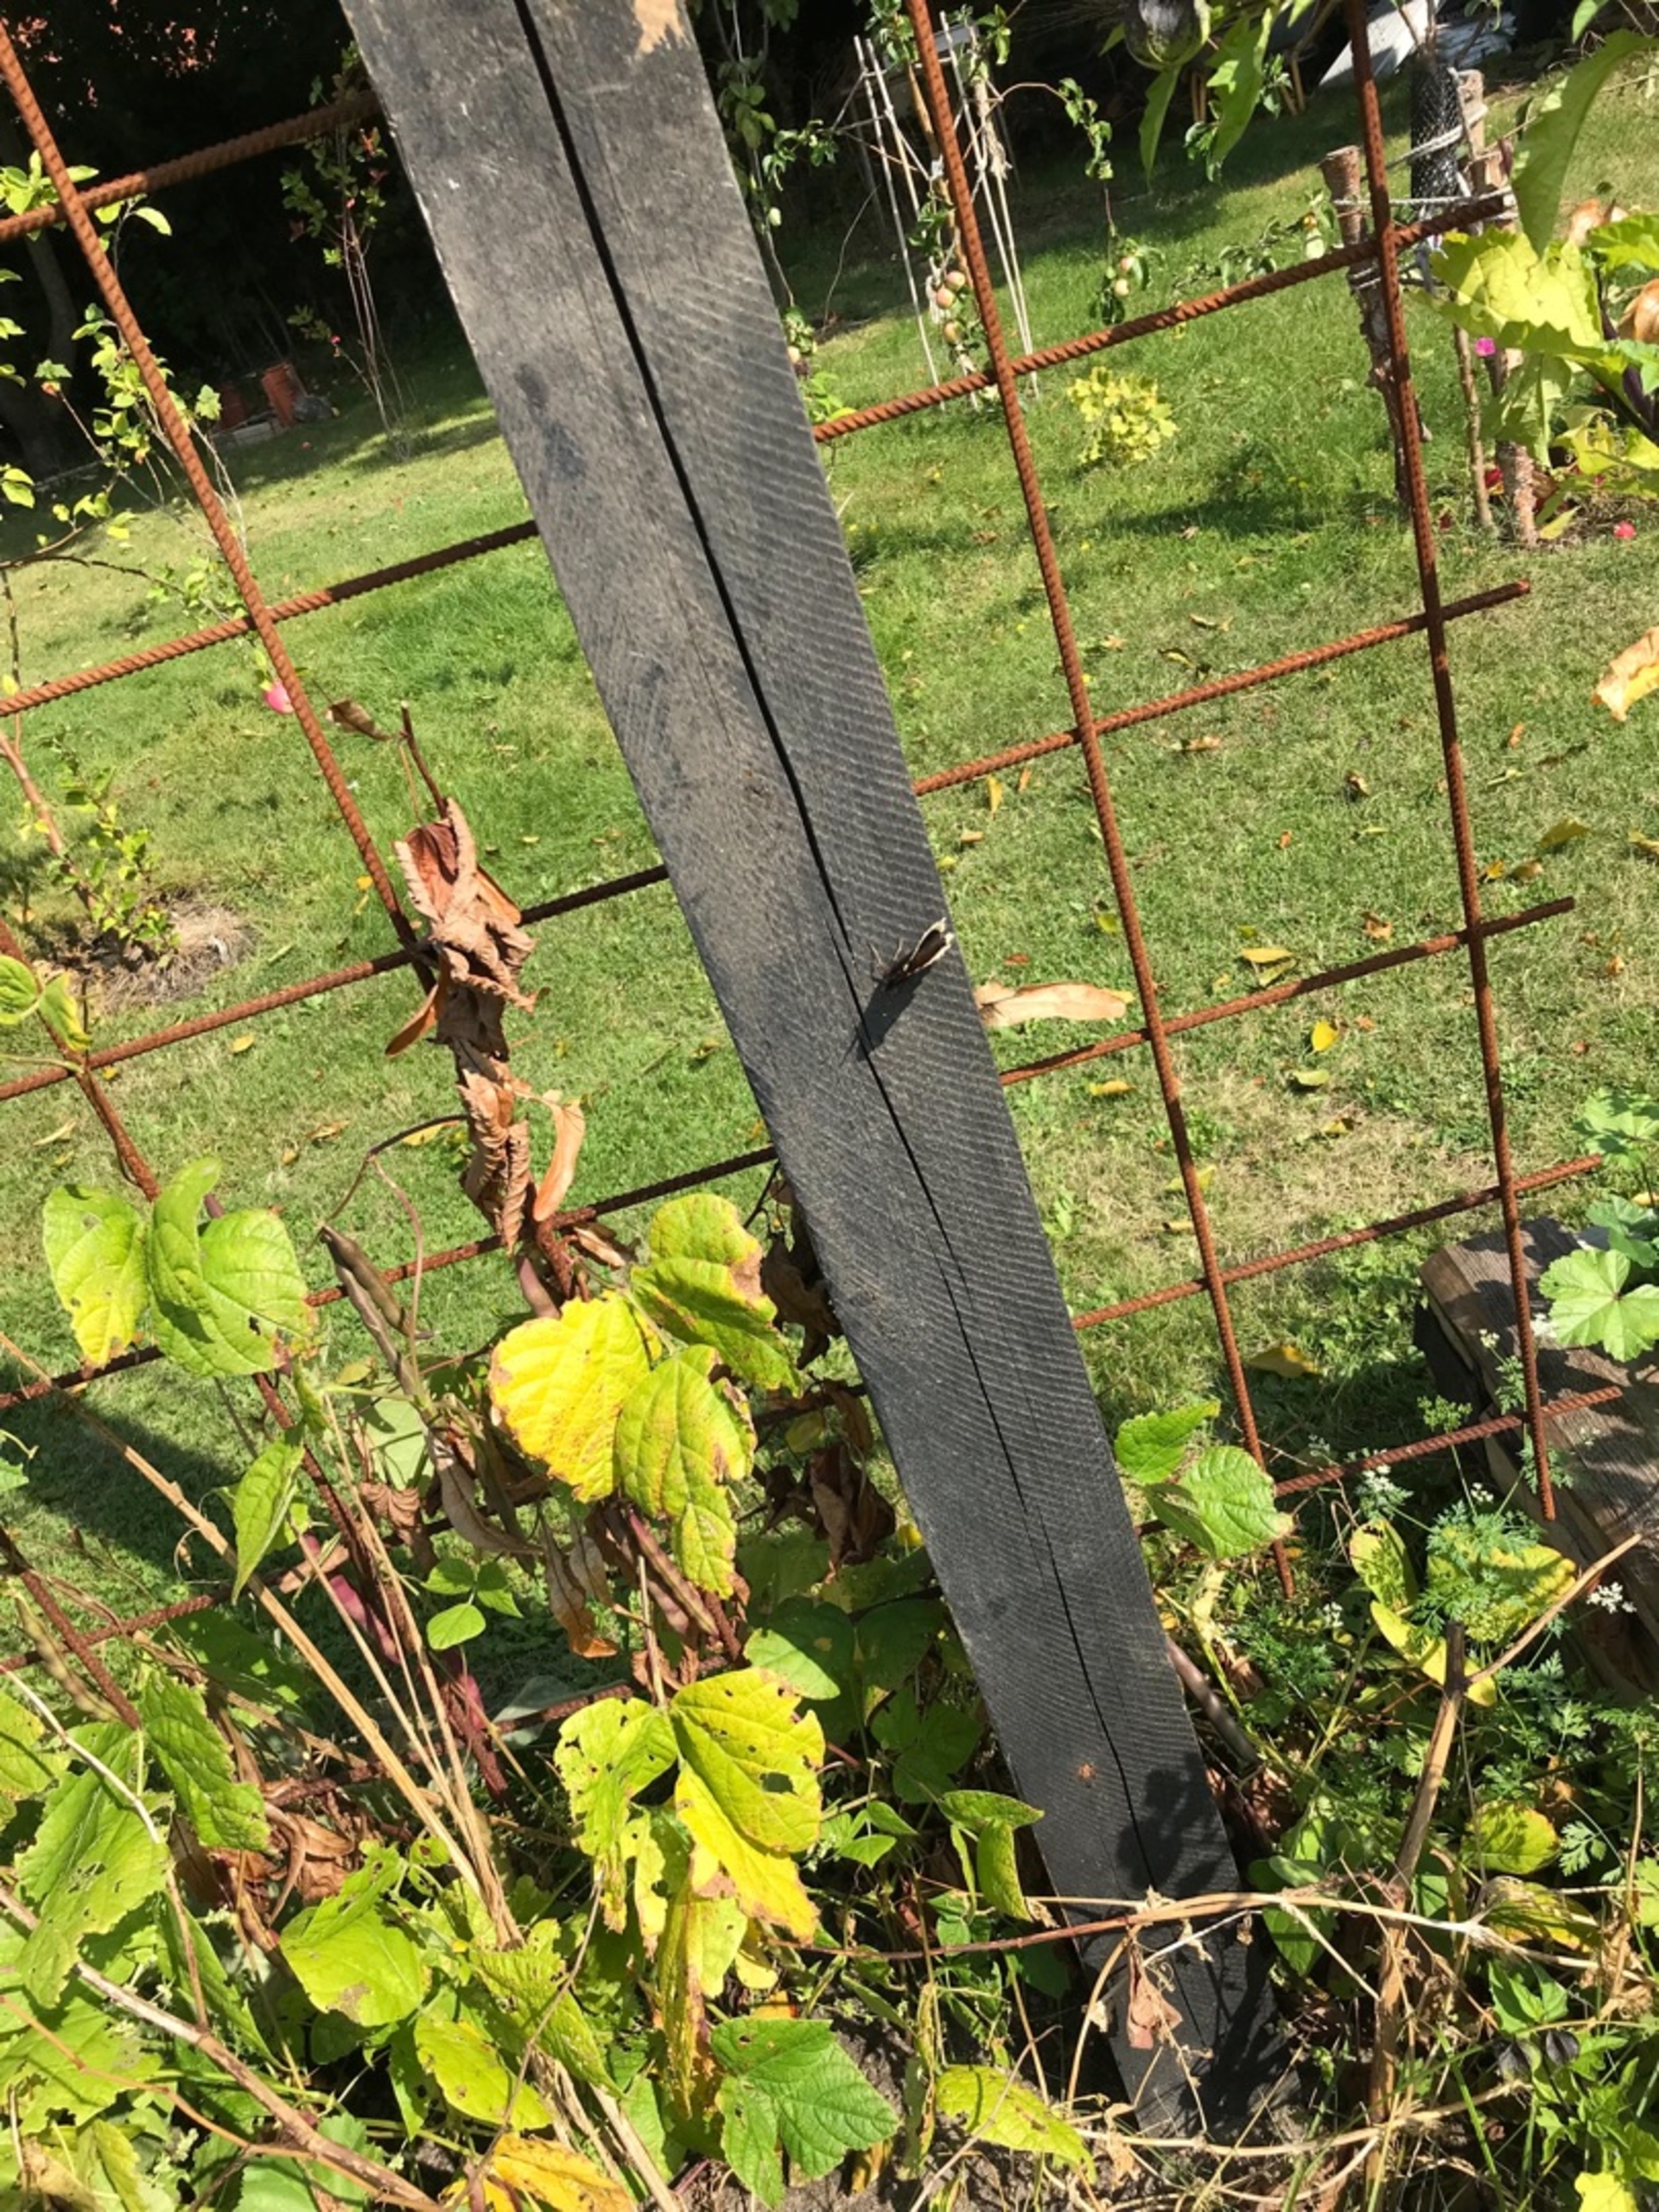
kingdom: Animalia
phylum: Arthropoda
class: Insecta
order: Lepidoptera
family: Nymphalidae
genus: Nymphalis
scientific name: Nymphalis antiopa
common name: Sørgekåbe
